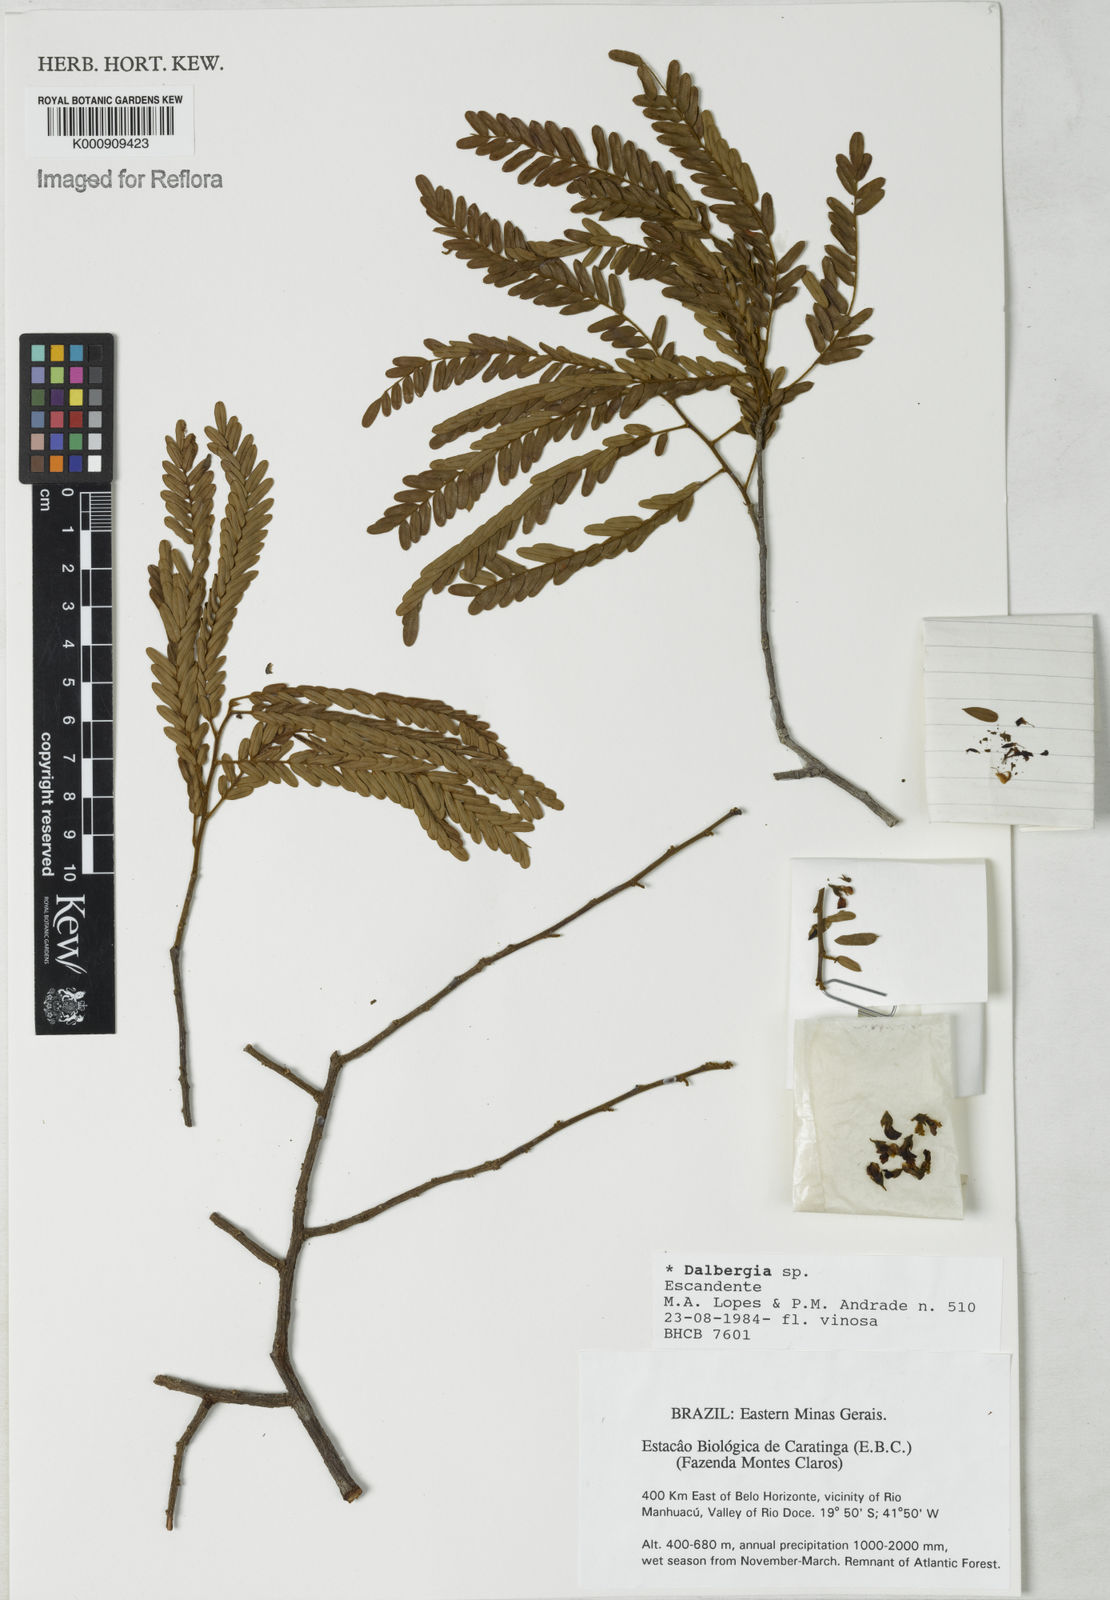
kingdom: Plantae
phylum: Tracheophyta
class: Magnoliopsida
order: Fabales
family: Fabaceae
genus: Dalbergia
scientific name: Dalbergia
